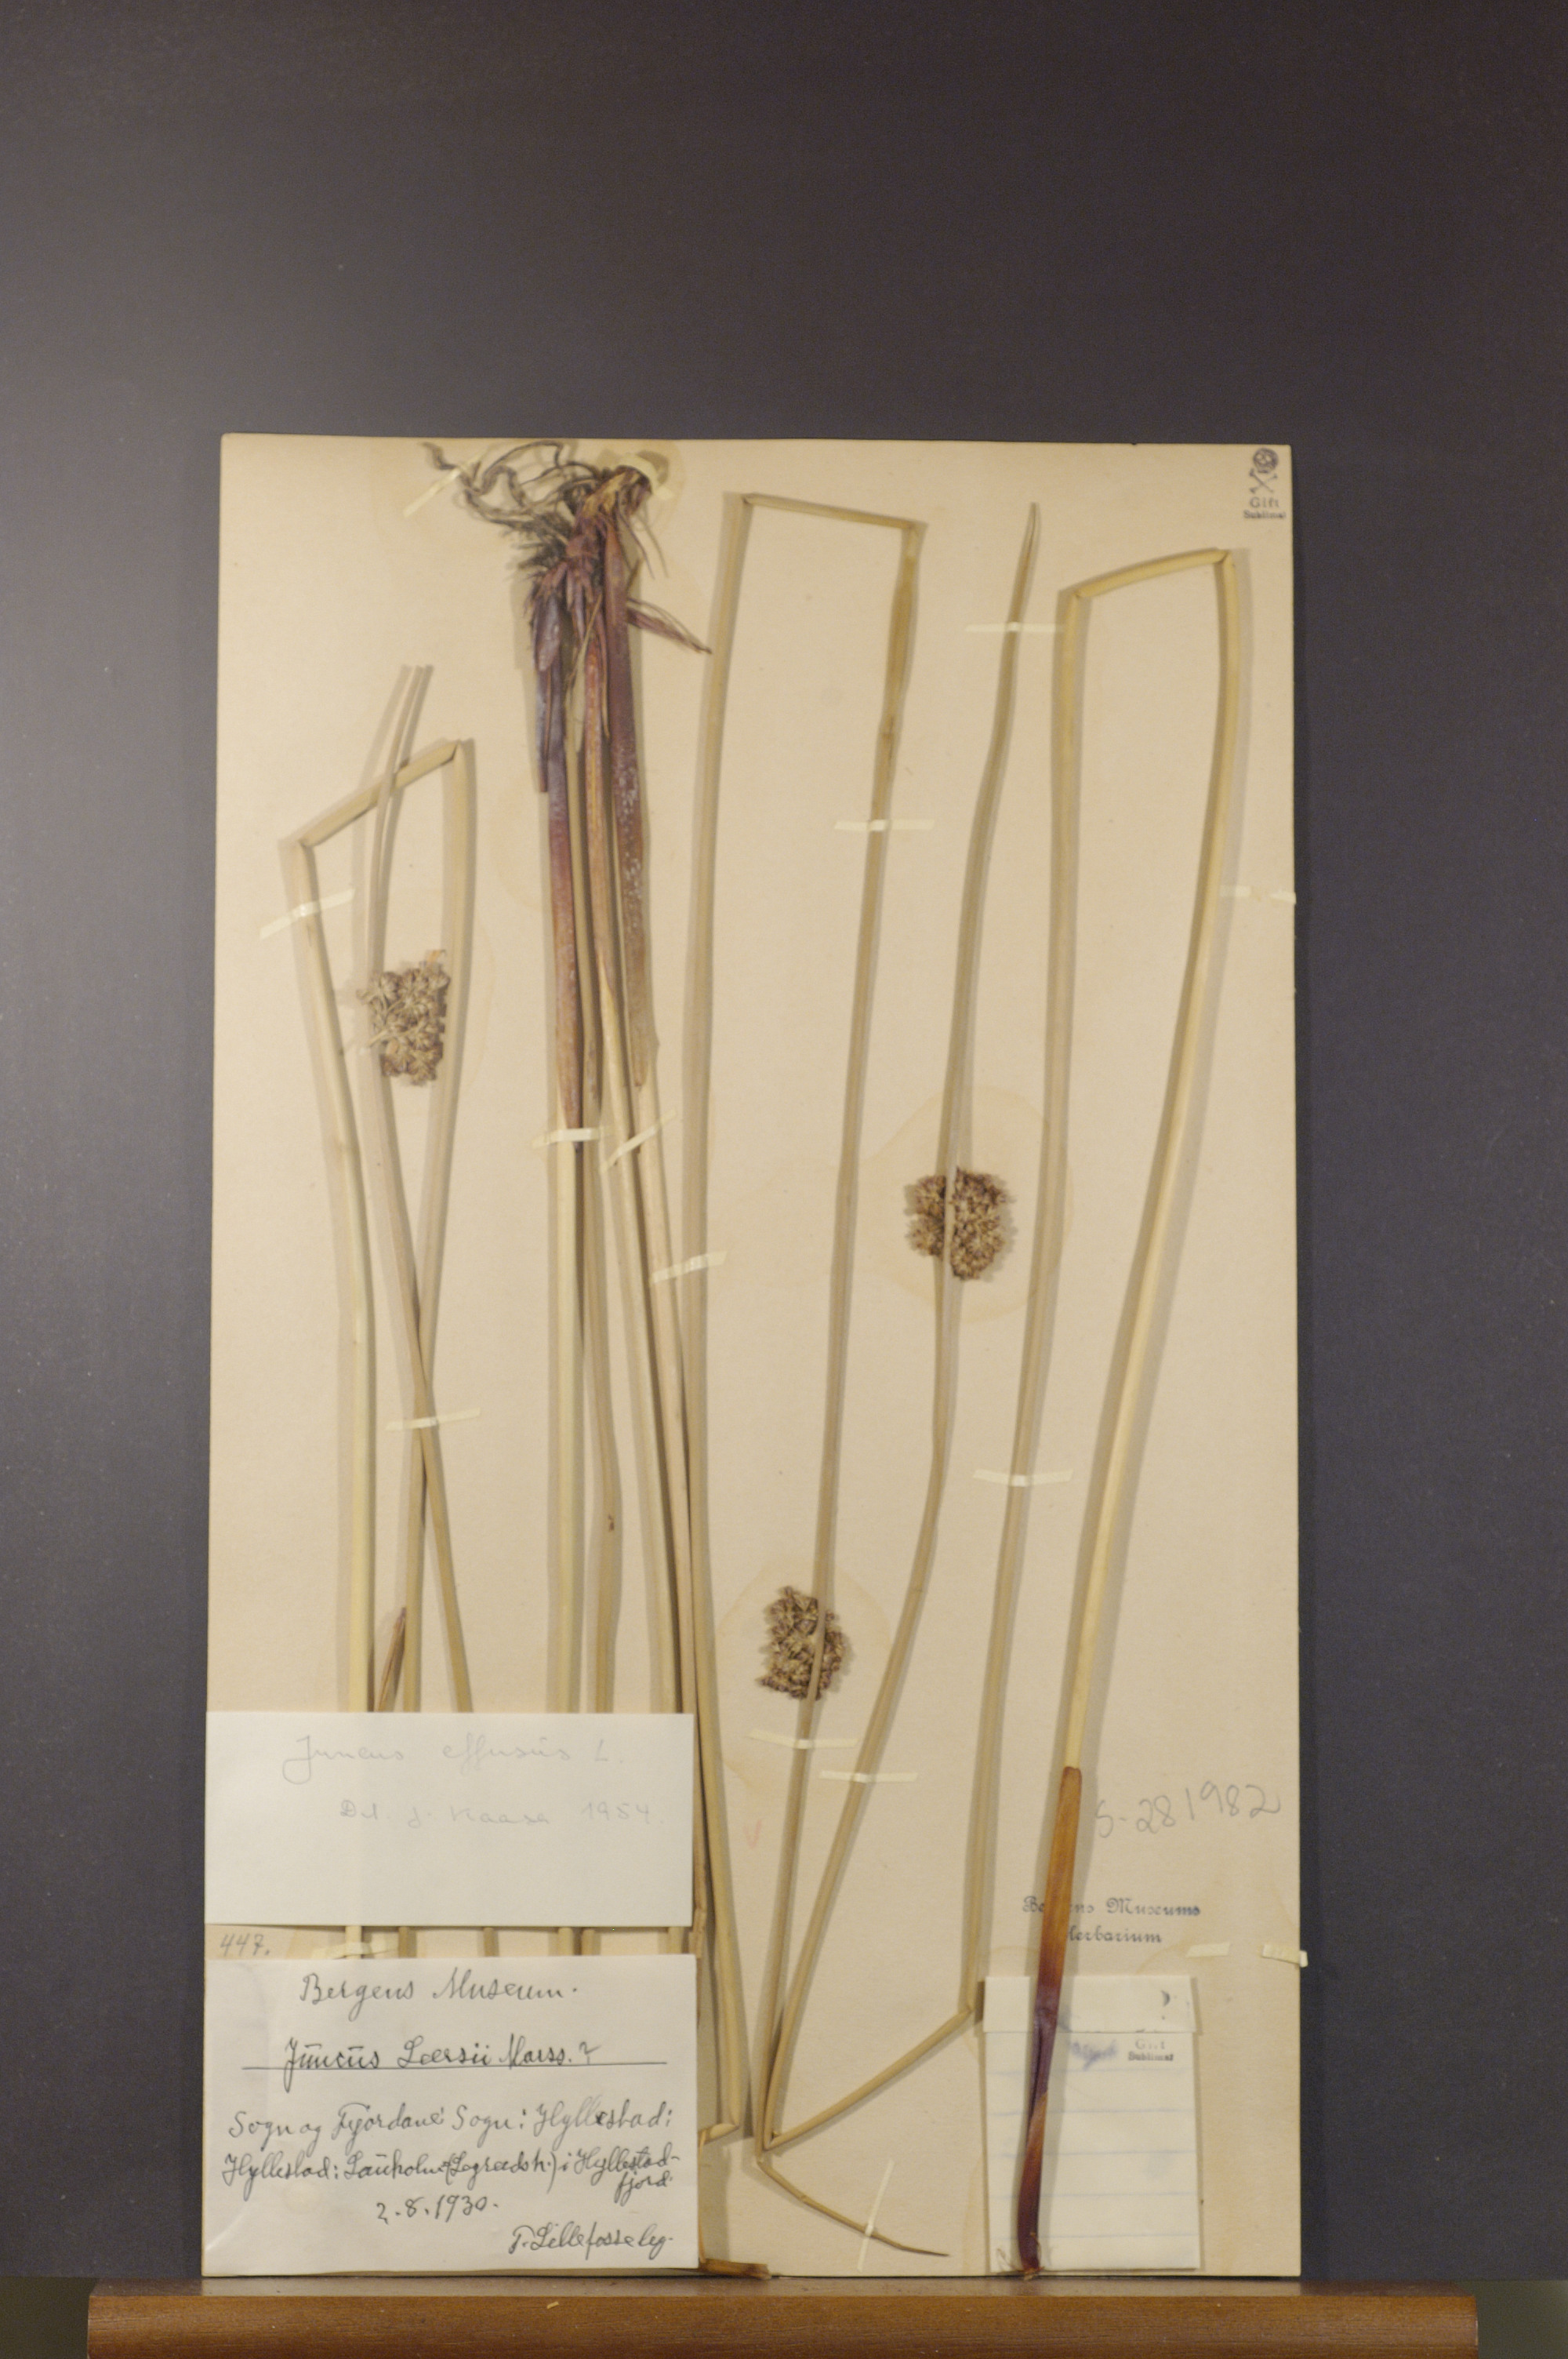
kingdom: Plantae
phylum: Tracheophyta
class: Liliopsida
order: Poales
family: Juncaceae
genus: Juncus
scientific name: Juncus effusus
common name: Soft rush
